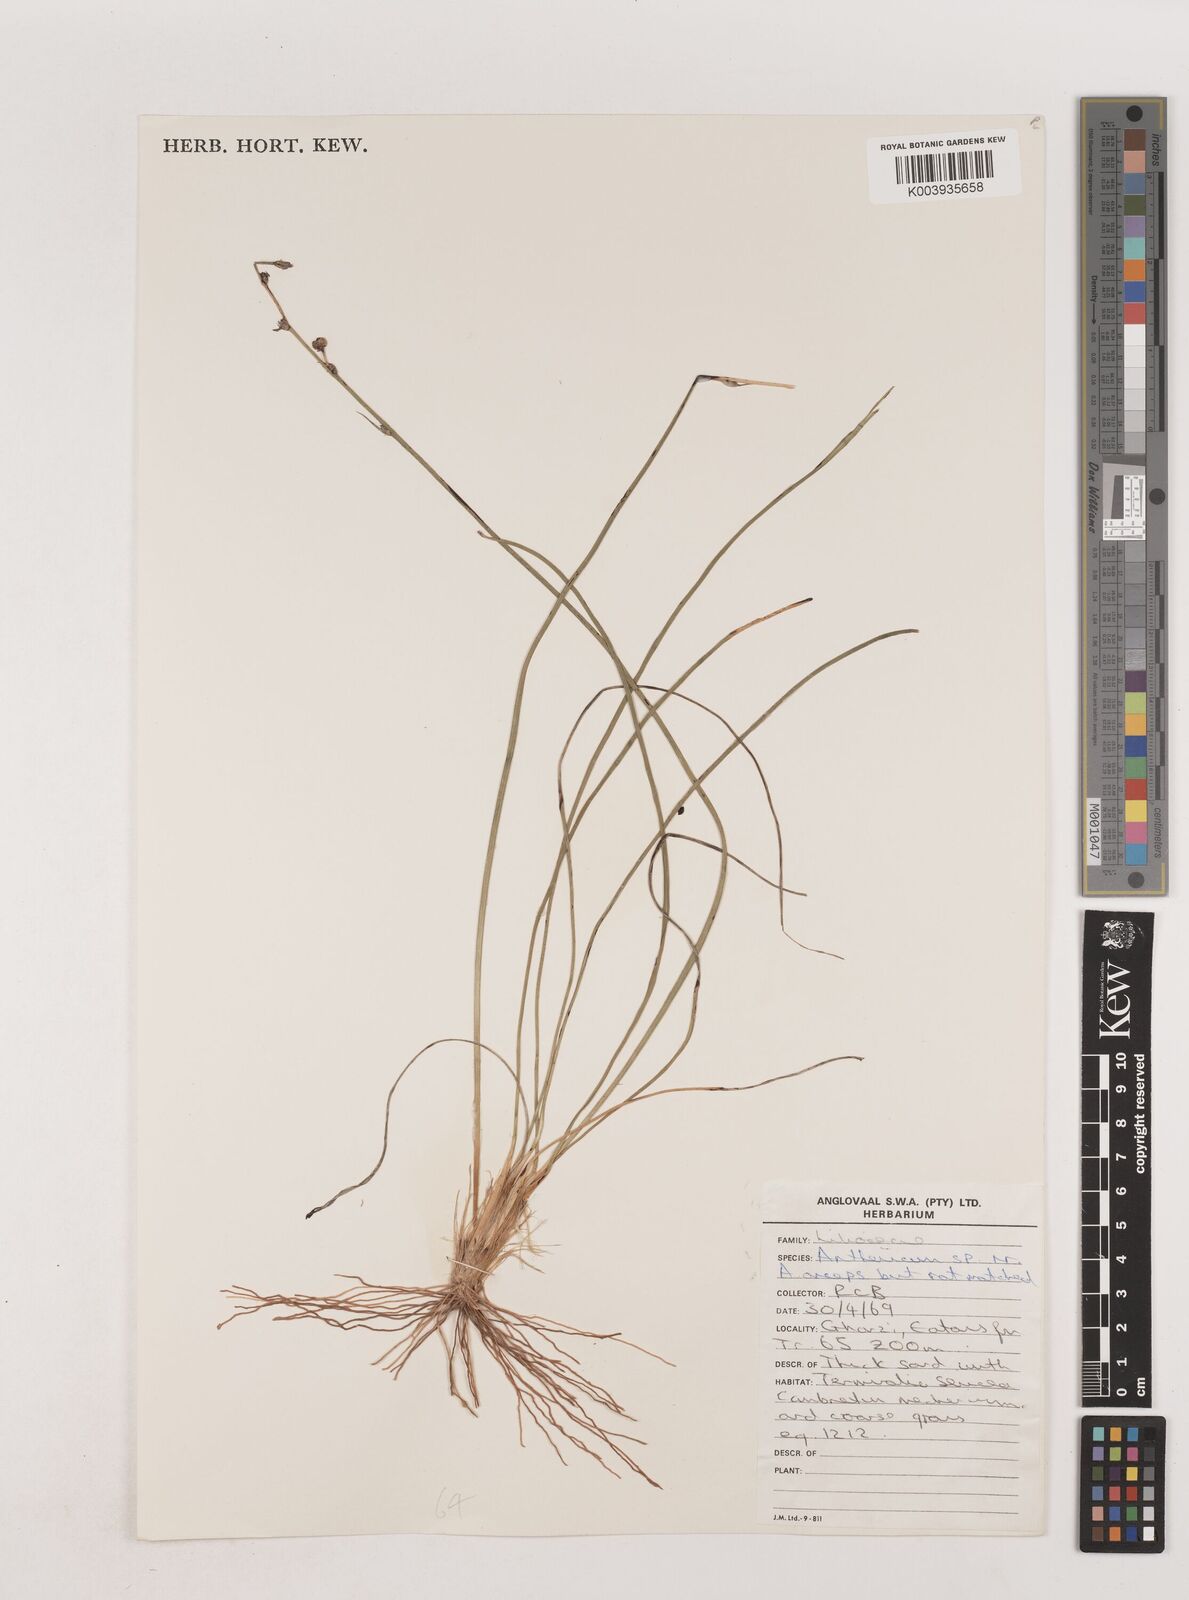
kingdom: Plantae
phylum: Tracheophyta
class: Liliopsida
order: Asparagales
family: Asparagaceae
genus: Chlorophytum
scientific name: Chlorophytum
